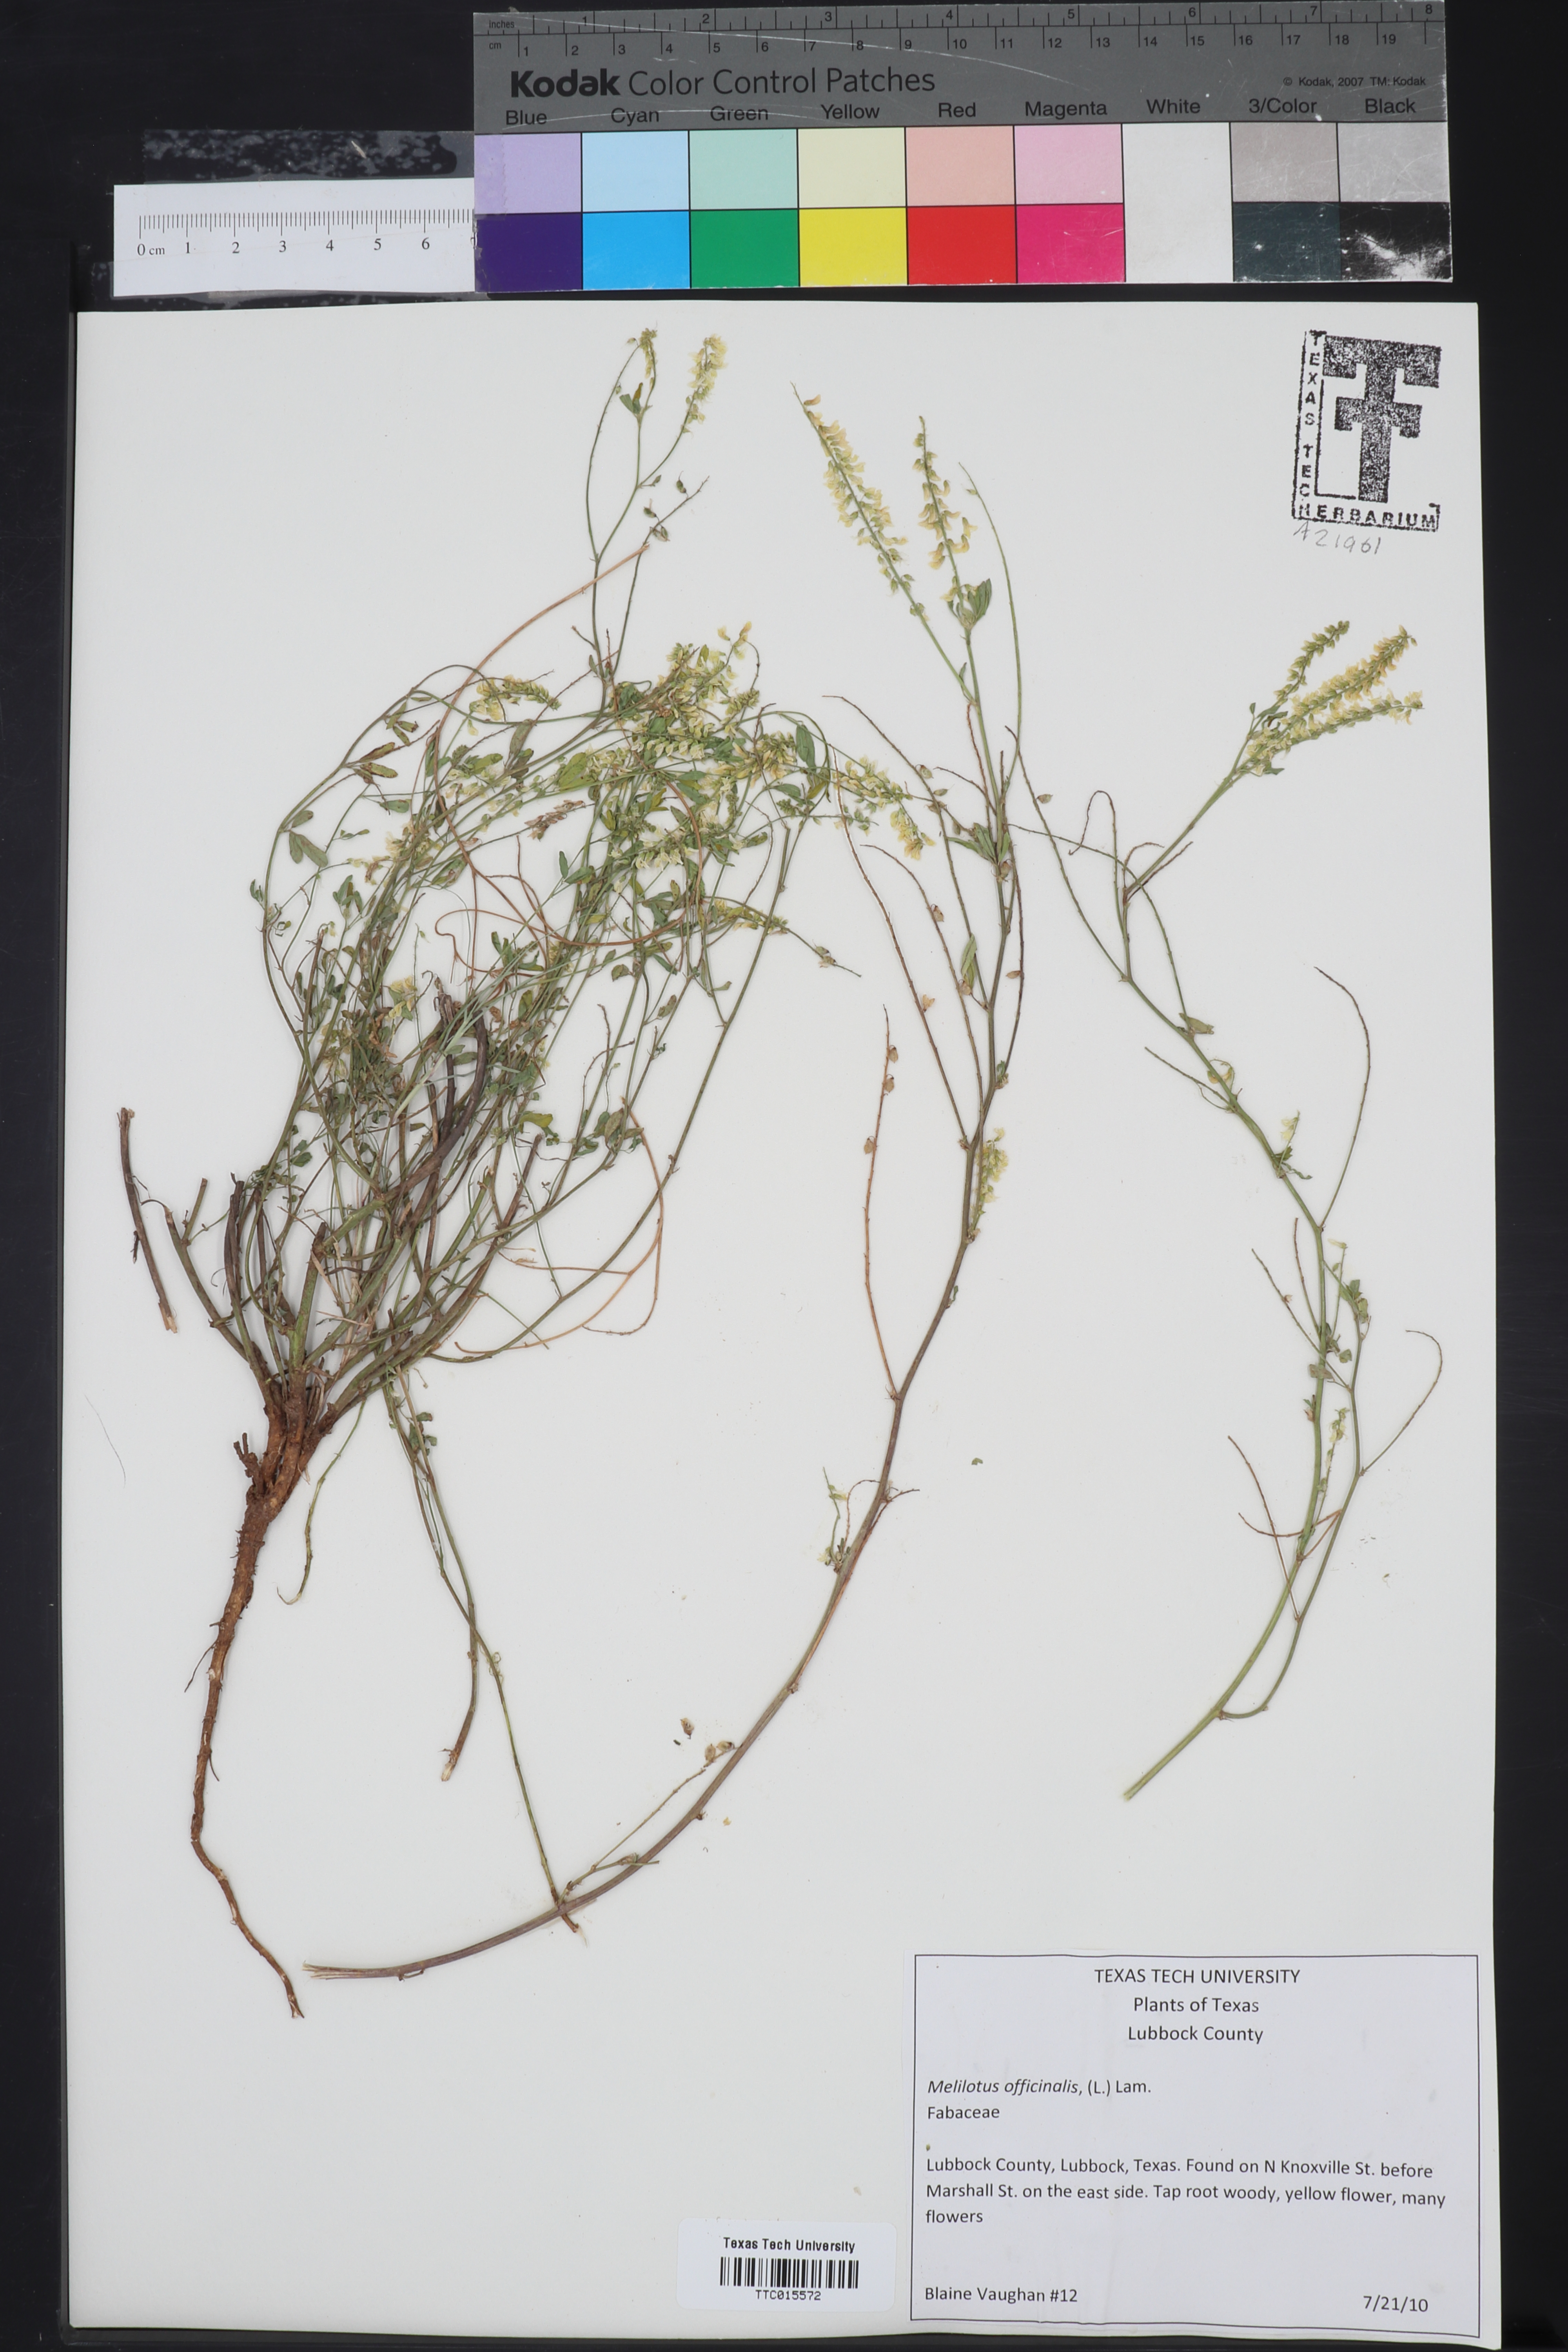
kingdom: Plantae
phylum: Tracheophyta
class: Magnoliopsida
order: Fabales
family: Fabaceae
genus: Melilotus
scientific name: Melilotus officinalis
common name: Sweetclover
